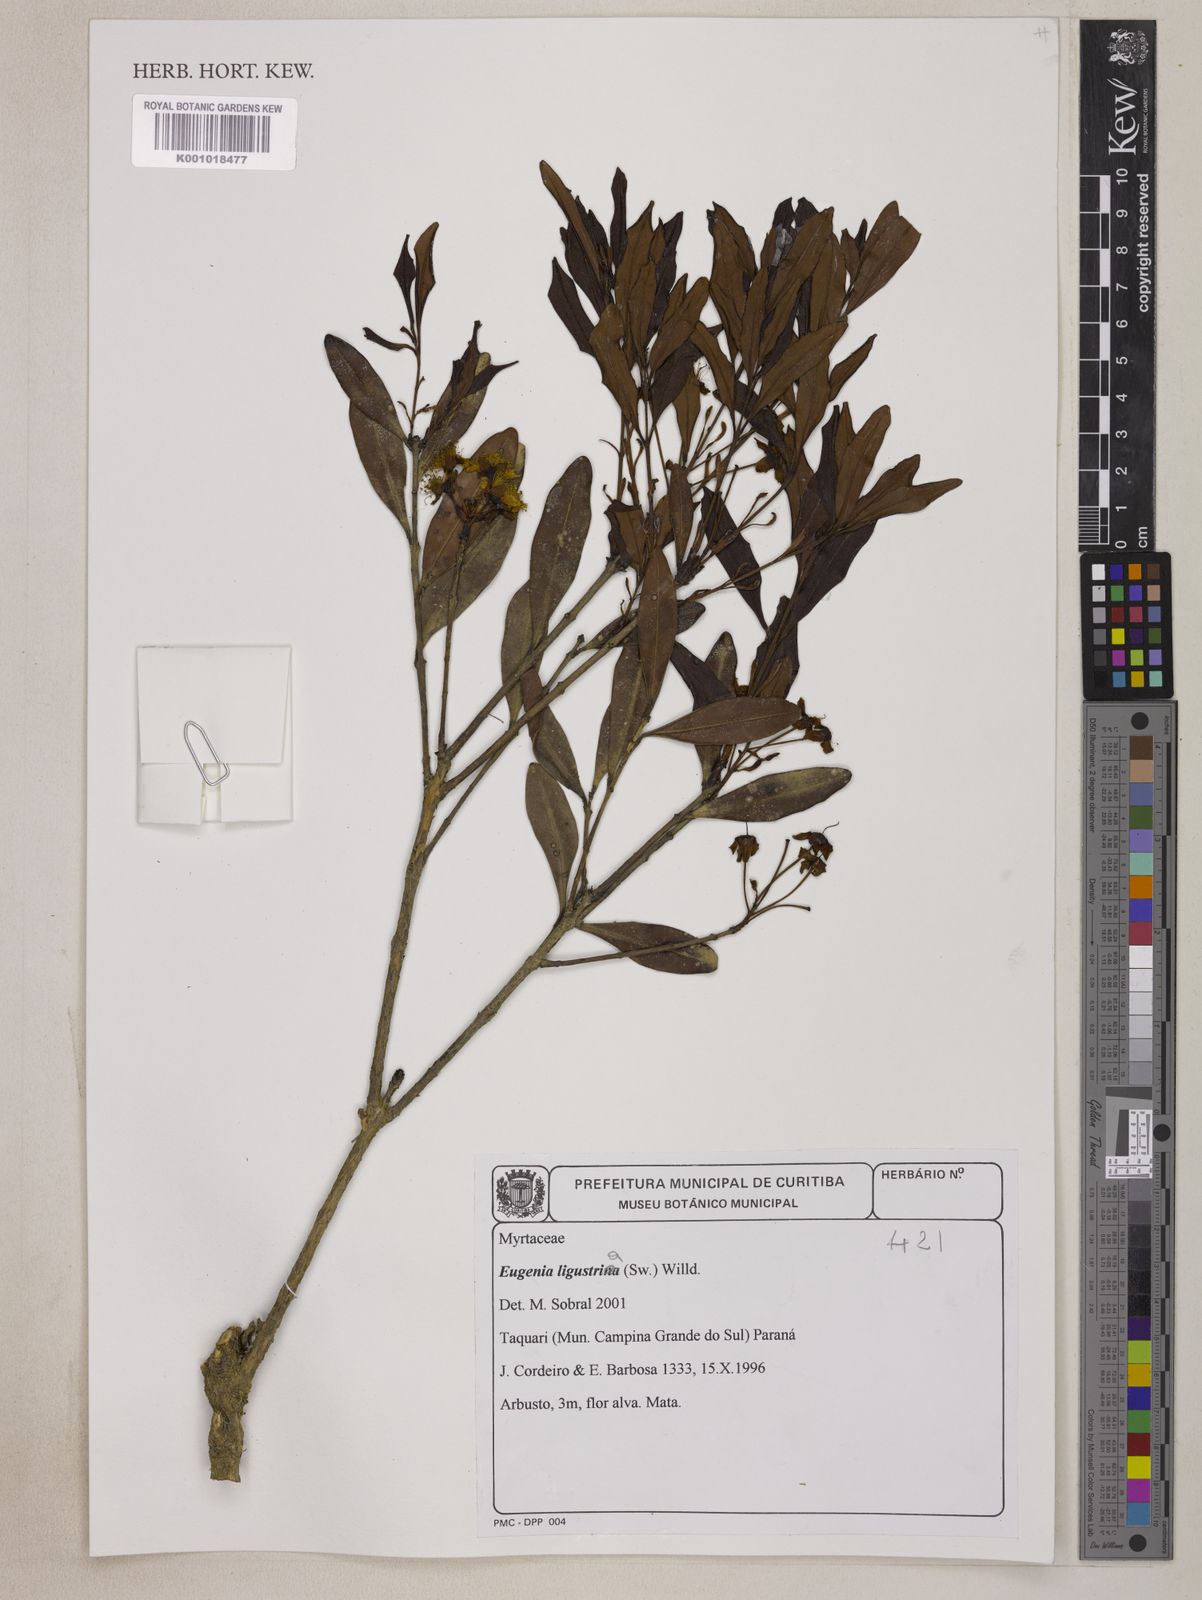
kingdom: Plantae
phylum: Tracheophyta
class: Magnoliopsida
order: Myrtales
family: Myrtaceae
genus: Eugenia
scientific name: Eugenia ligustrina
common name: Privet stopper
